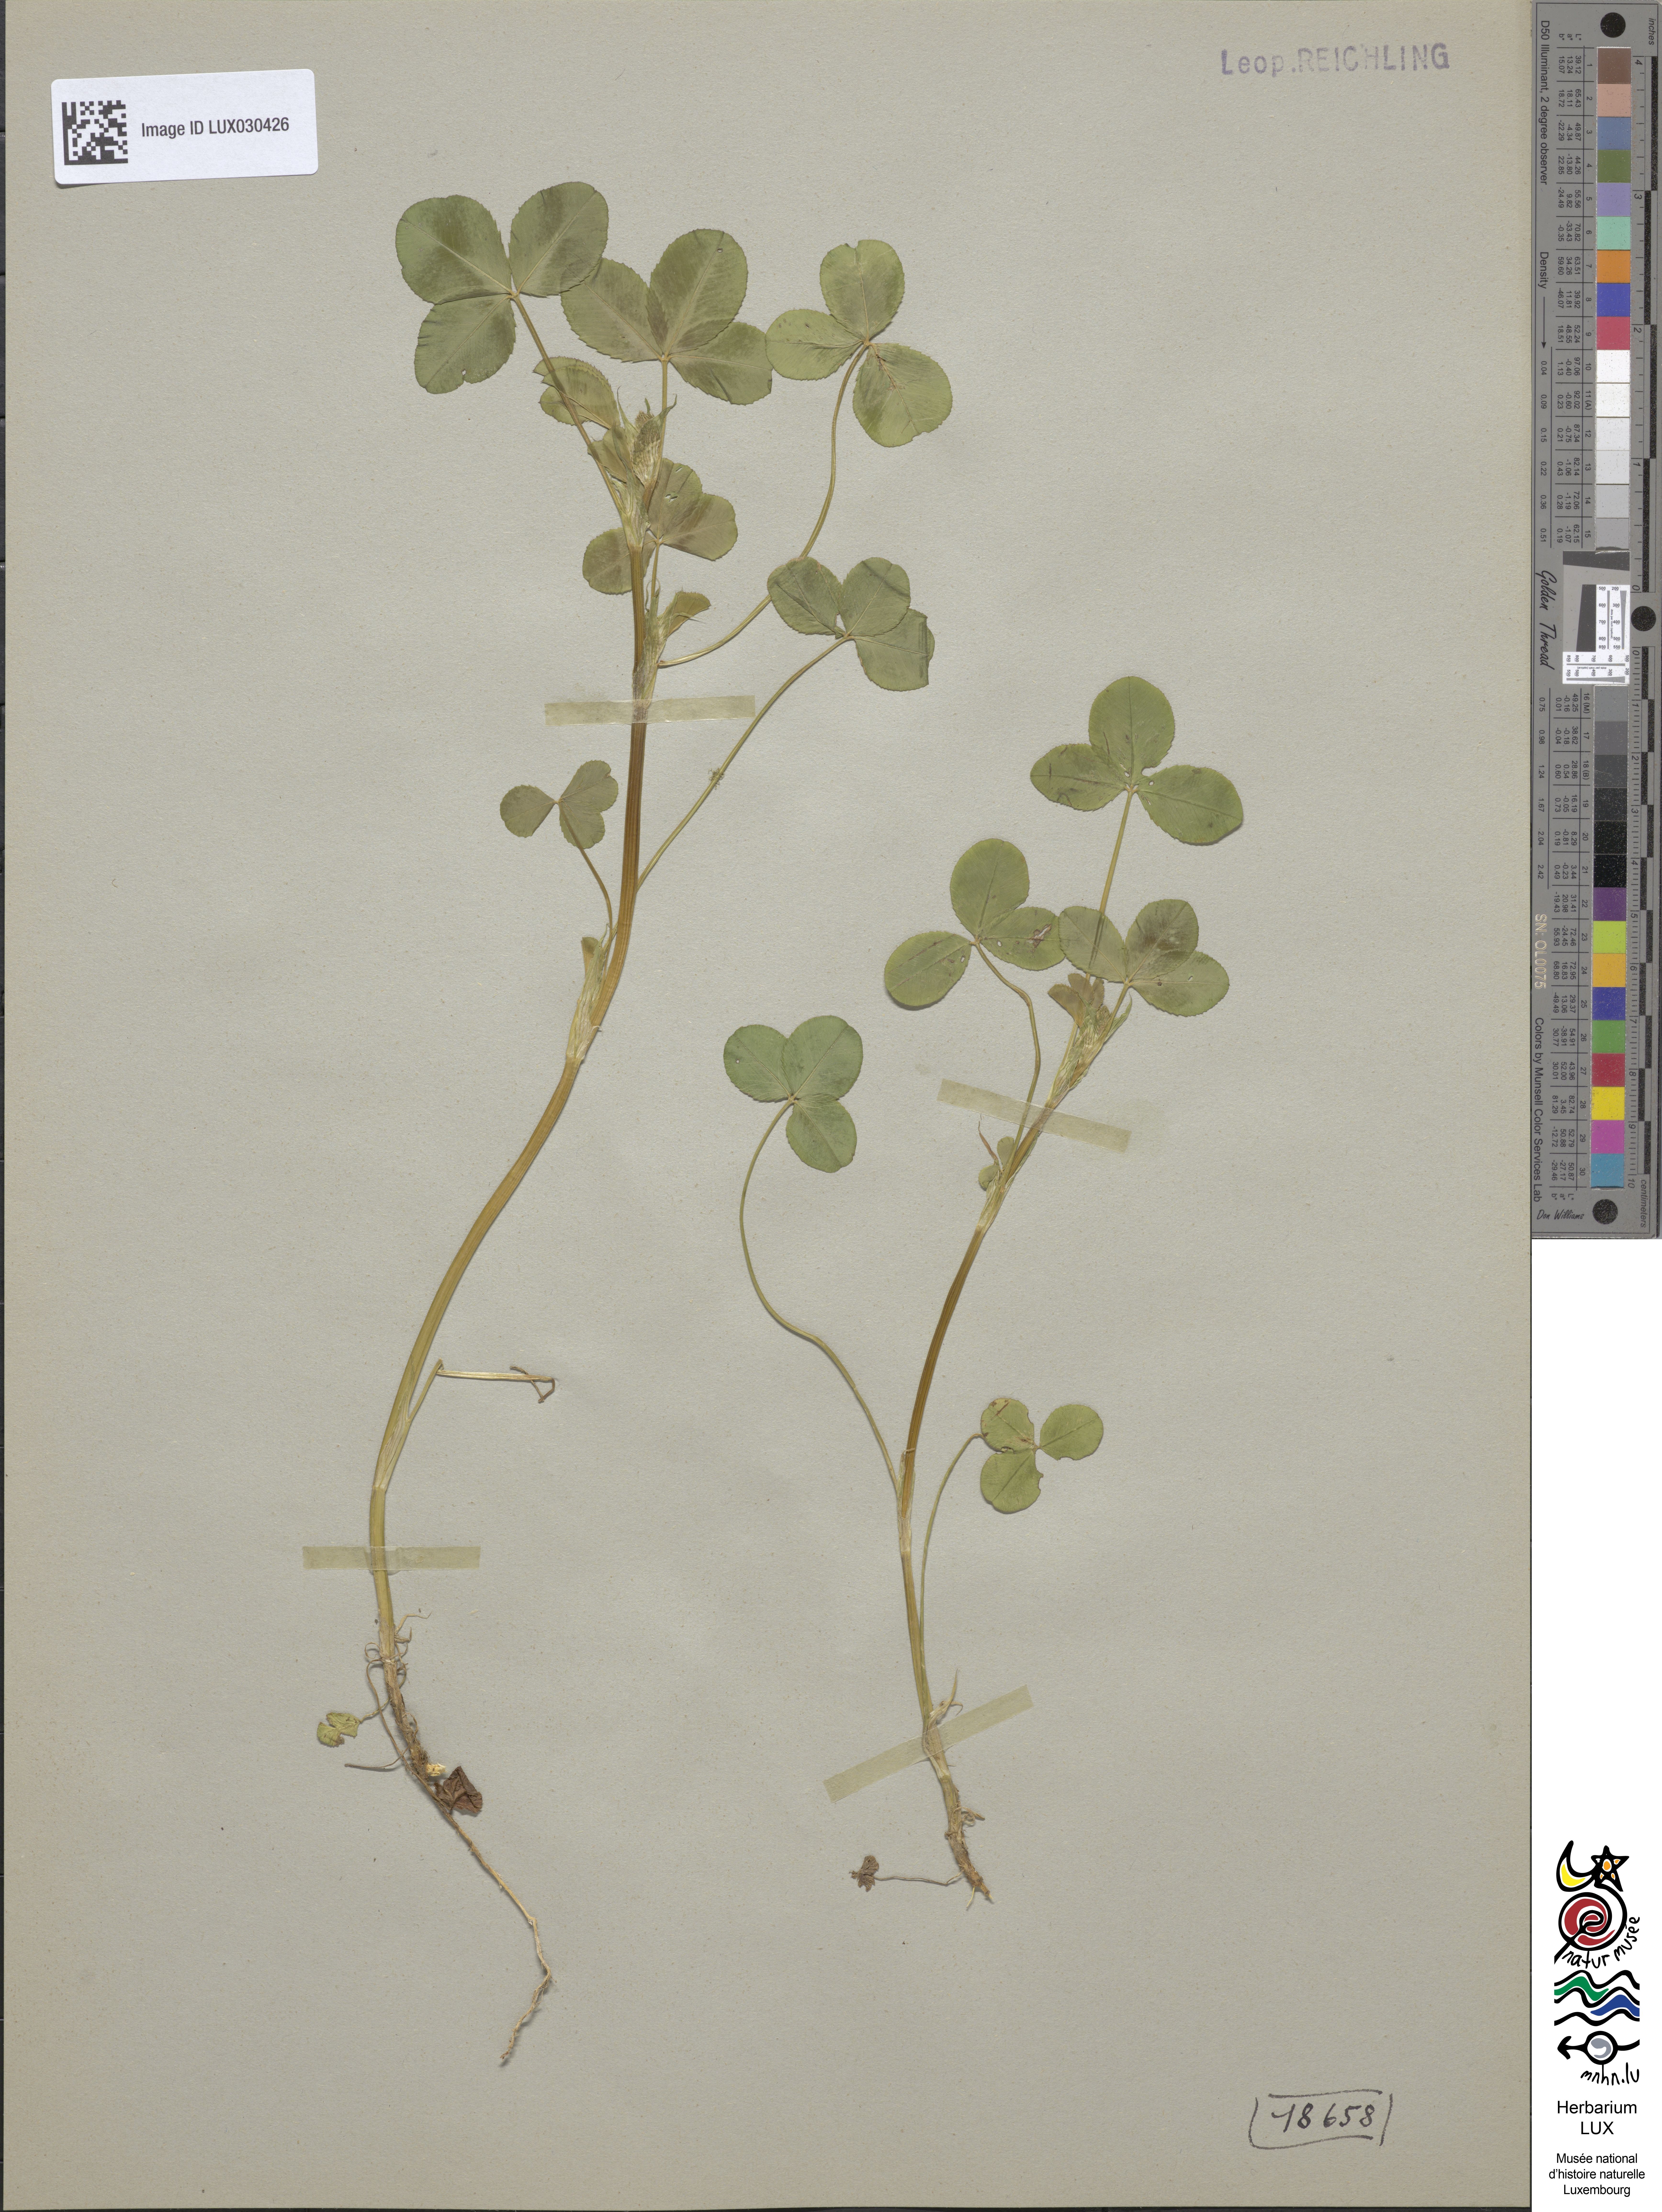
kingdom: Plantae
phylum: Tracheophyta
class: Magnoliopsida
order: Fabales
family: Fabaceae
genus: Trifolium
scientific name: Trifolium hybridum
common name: Alsike clover
